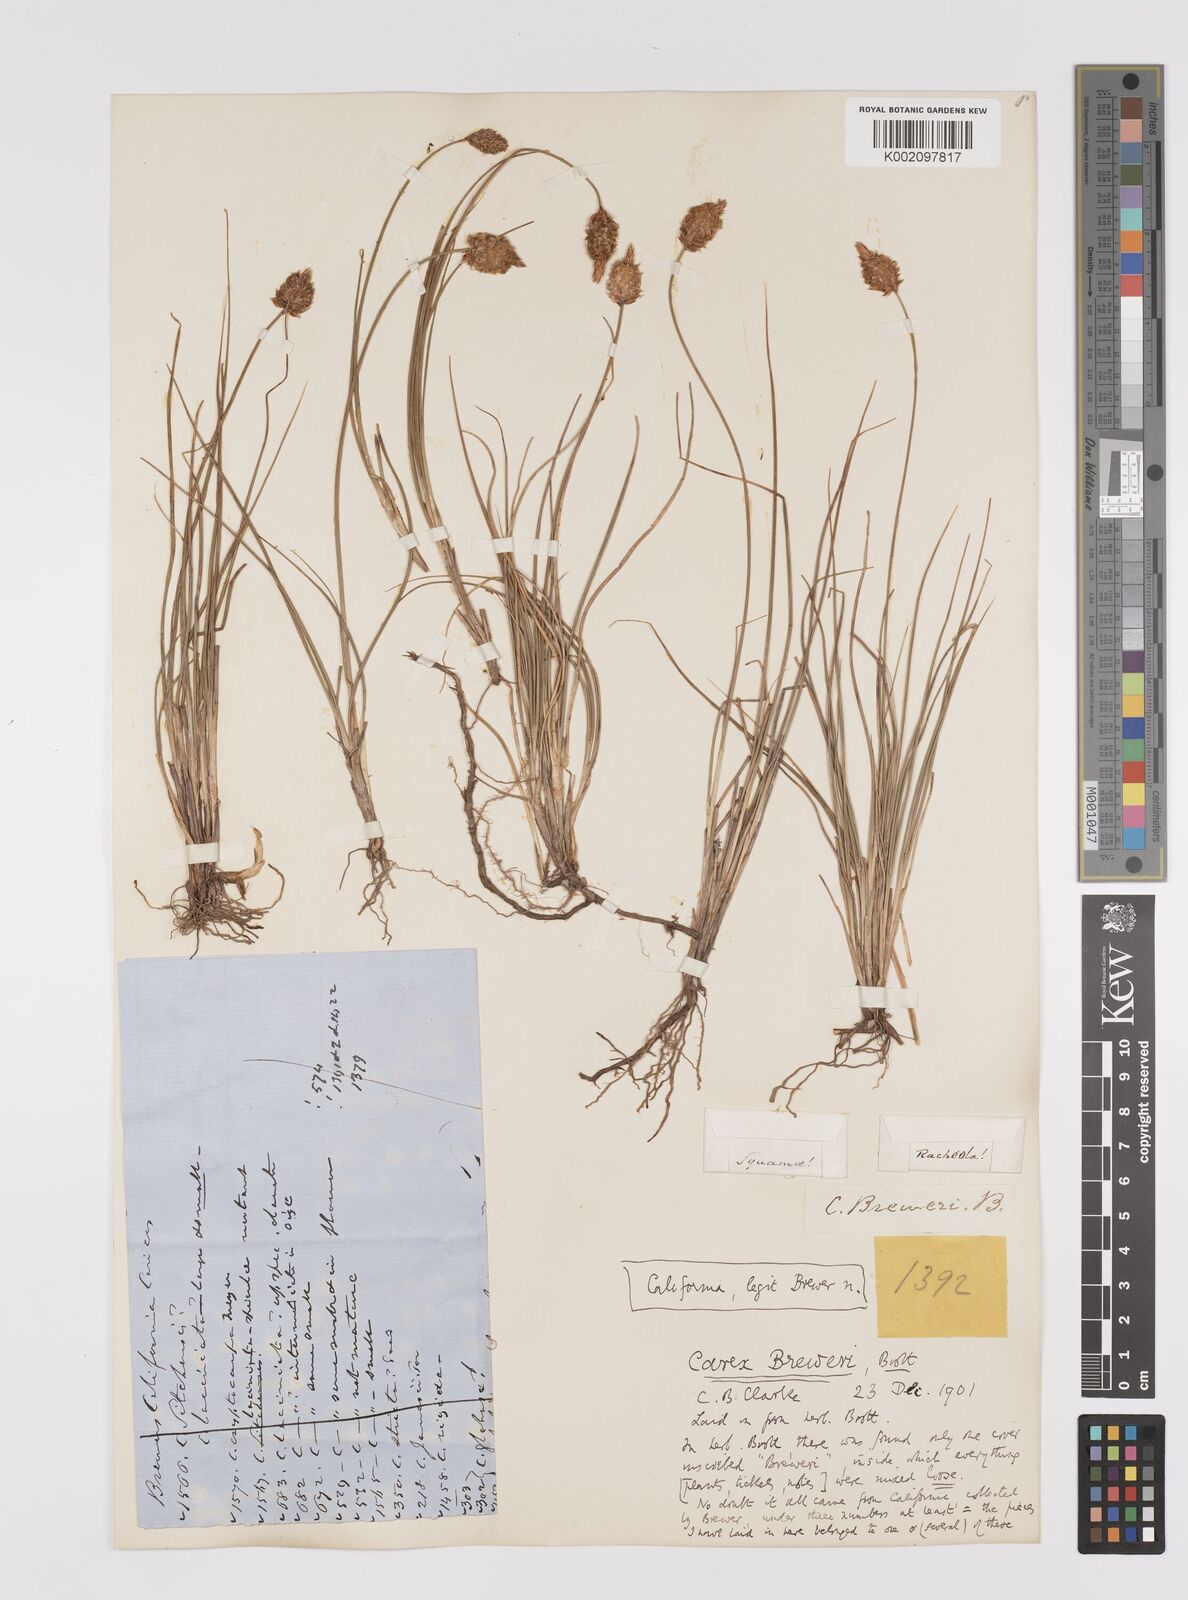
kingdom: Plantae
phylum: Tracheophyta
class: Liliopsida
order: Poales
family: Cyperaceae
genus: Carex
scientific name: Carex breweri
